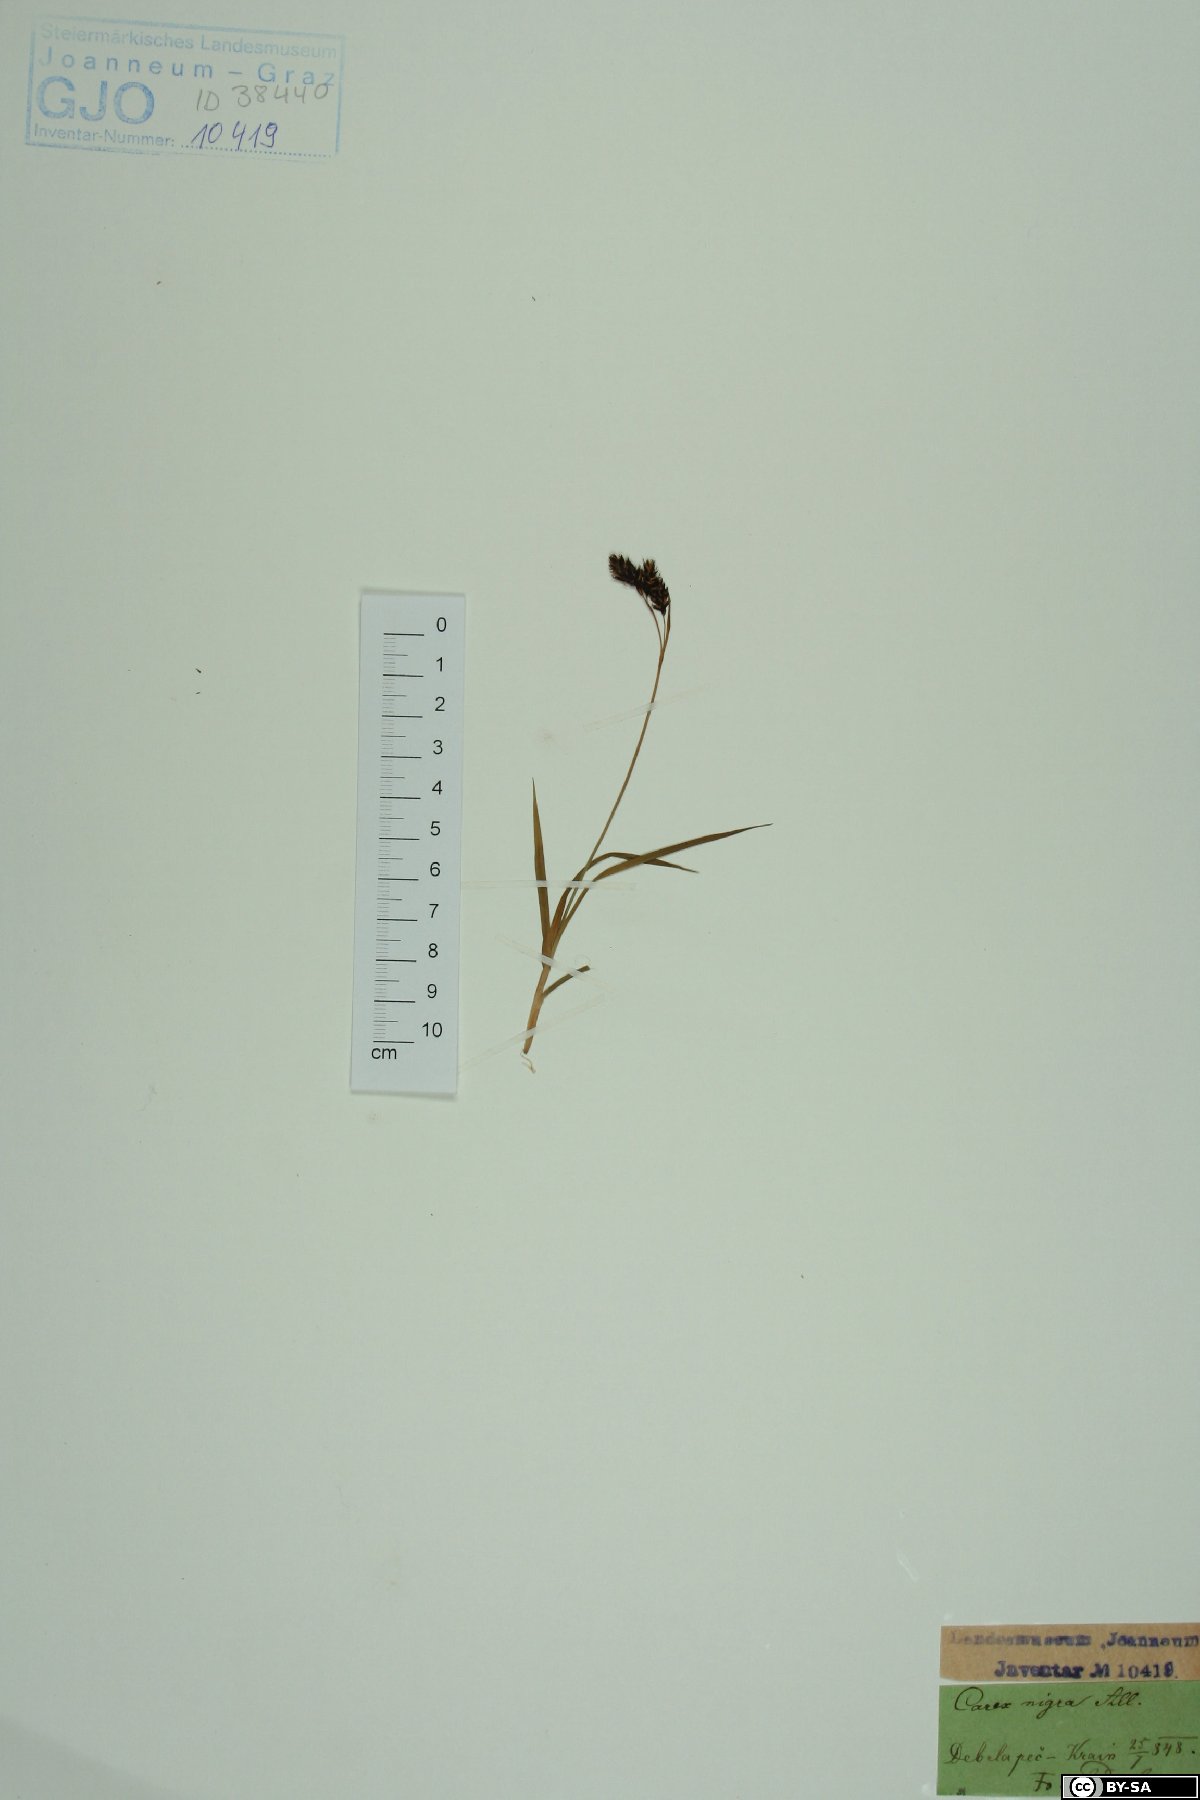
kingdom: Plantae
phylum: Tracheophyta
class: Liliopsida
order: Poales
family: Cyperaceae
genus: Carex
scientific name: Carex nigra
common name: Common sedge
